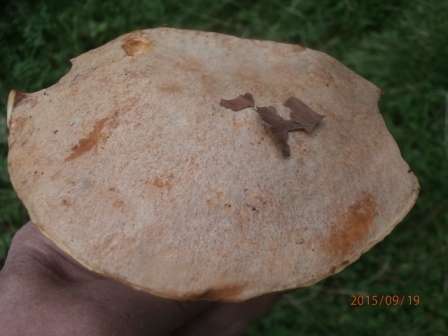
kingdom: Fungi
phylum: Basidiomycota
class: Agaricomycetes
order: Boletales
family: Boletaceae
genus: Hemileccinum
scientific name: Hemileccinum impolitum
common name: bleg rørhat
